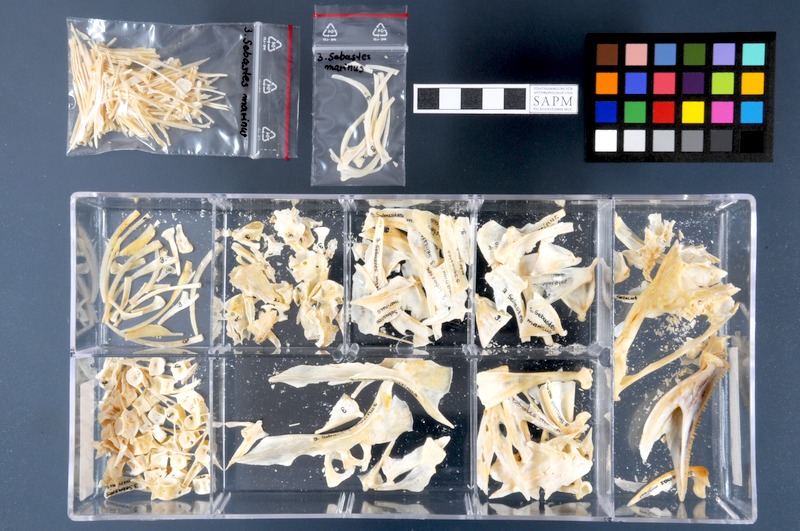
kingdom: Animalia
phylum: Chordata
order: Scorpaeniformes
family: Sebastidae
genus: Sebastes
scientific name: Sebastes norvegicus
